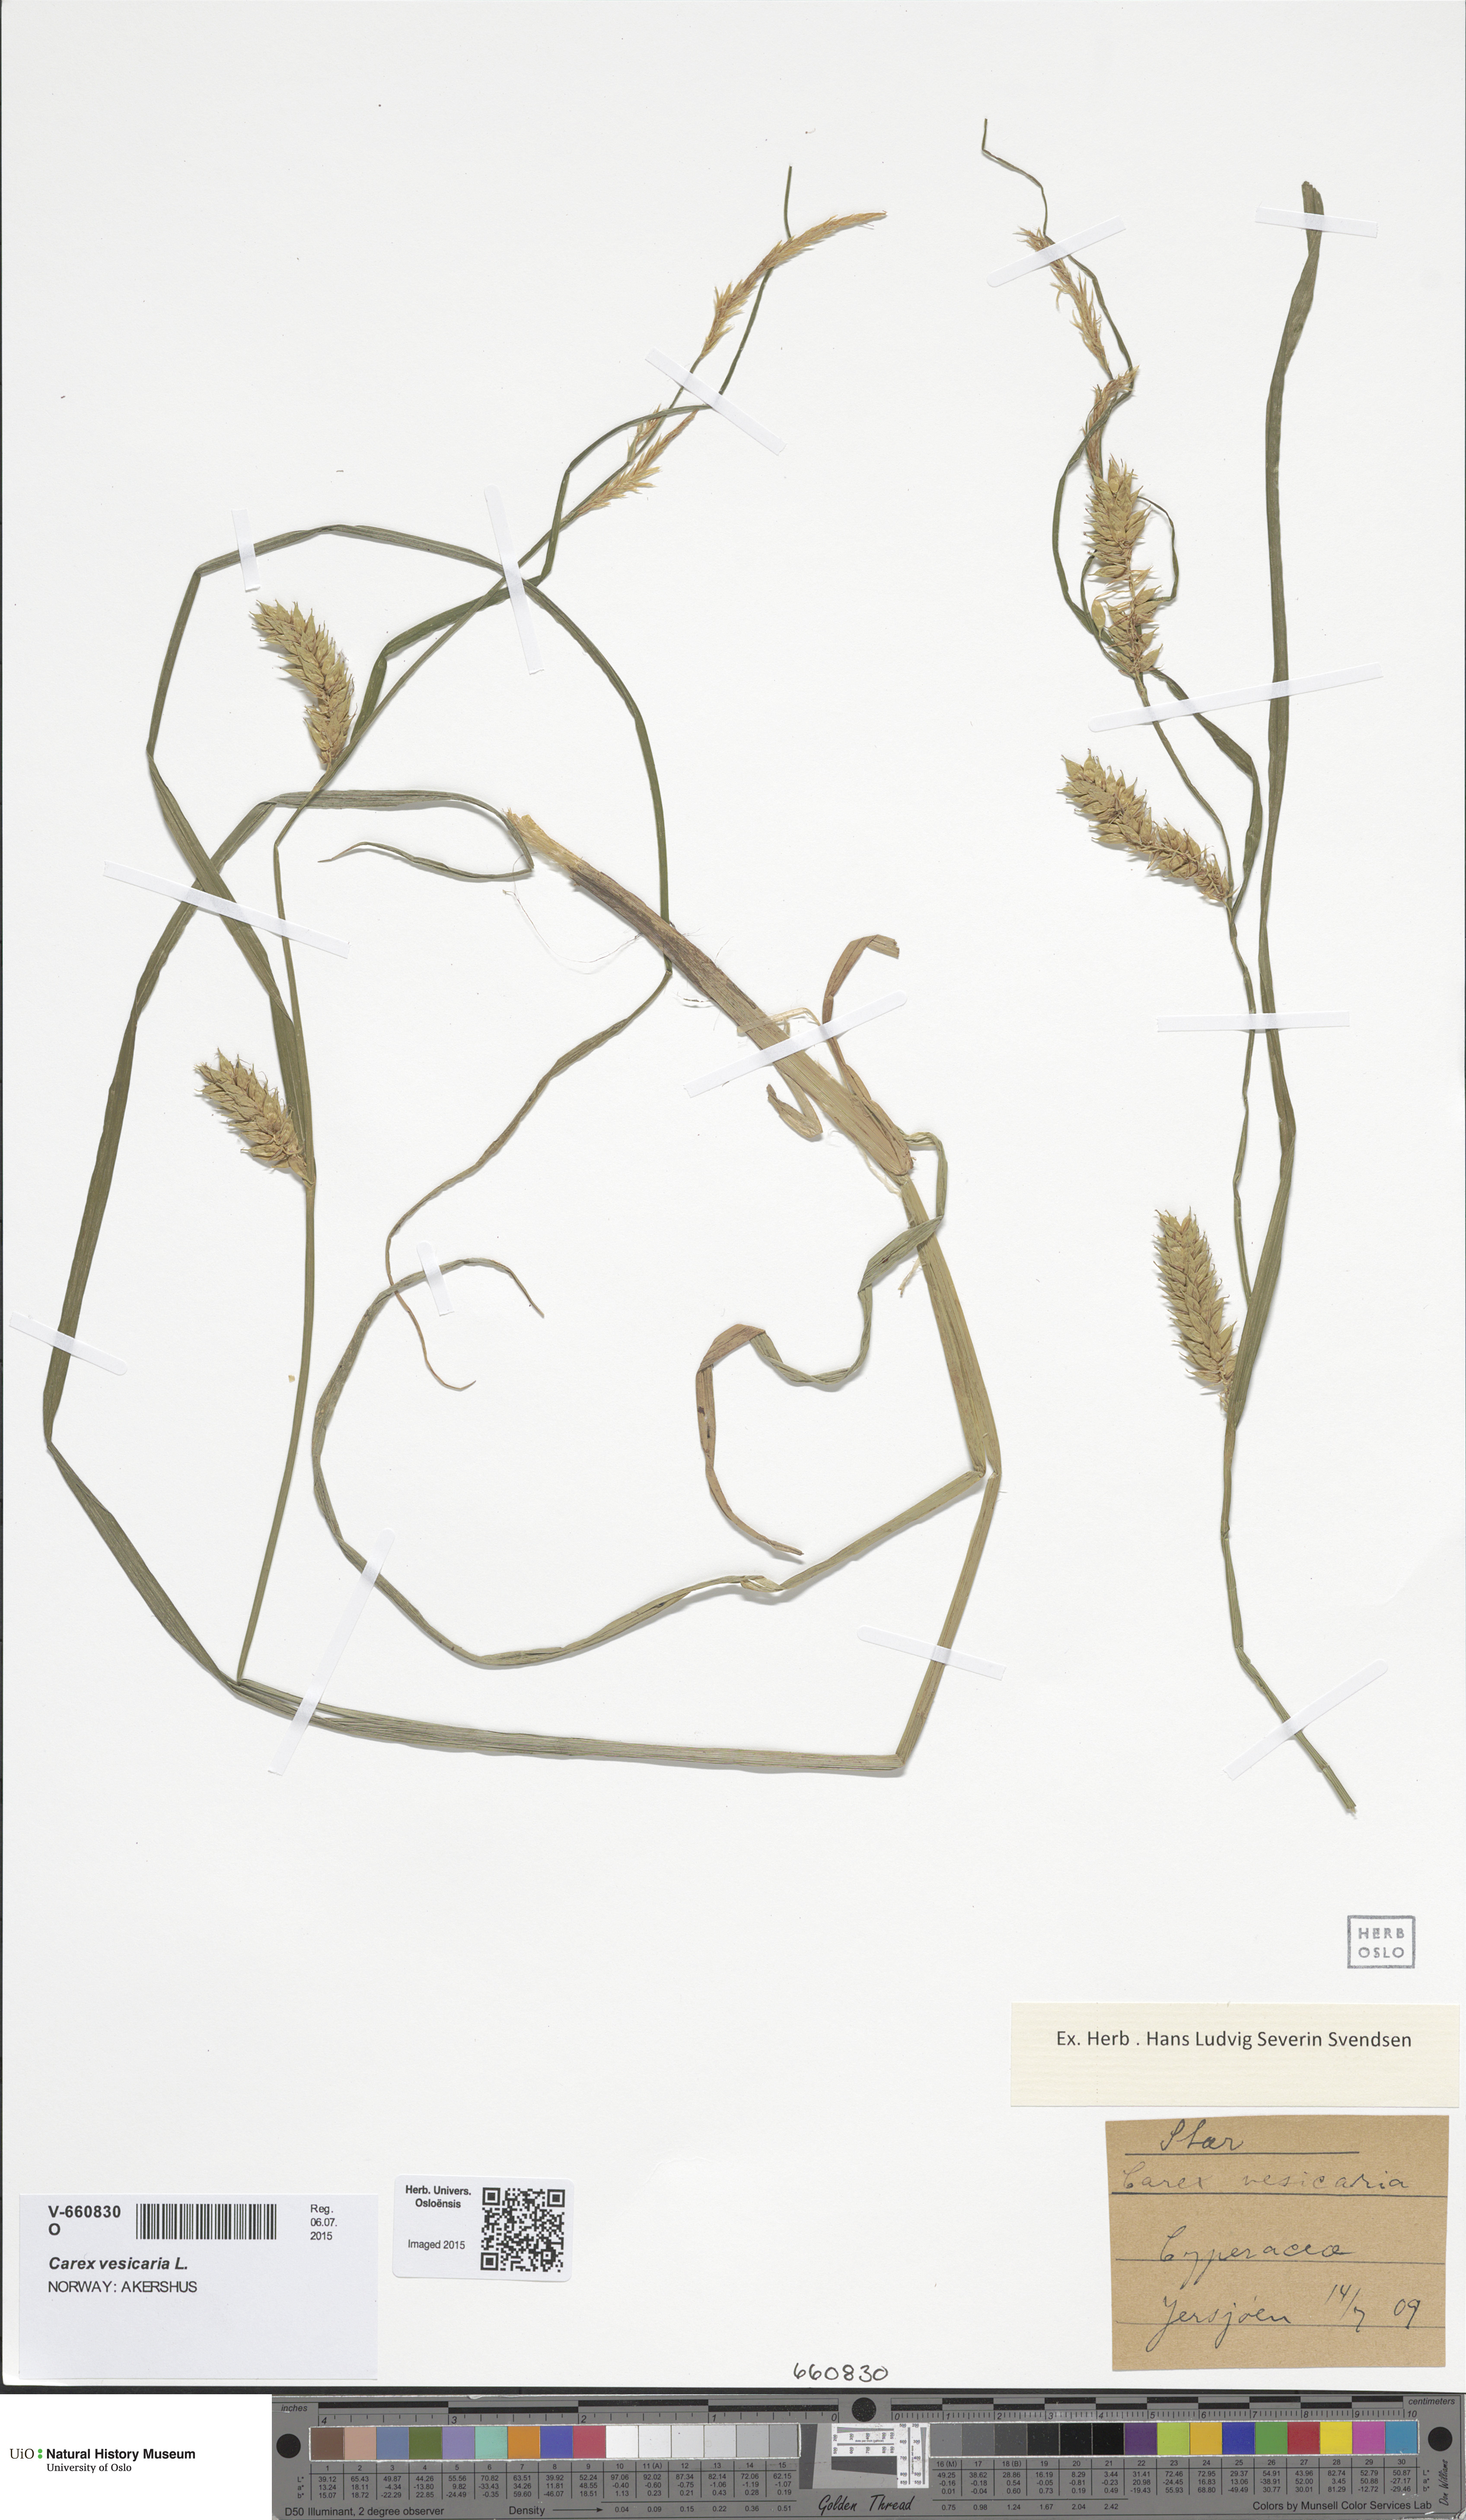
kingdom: Plantae
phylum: Tracheophyta
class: Liliopsida
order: Poales
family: Cyperaceae
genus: Carex
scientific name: Carex vesicaria
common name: Bladder-sedge
